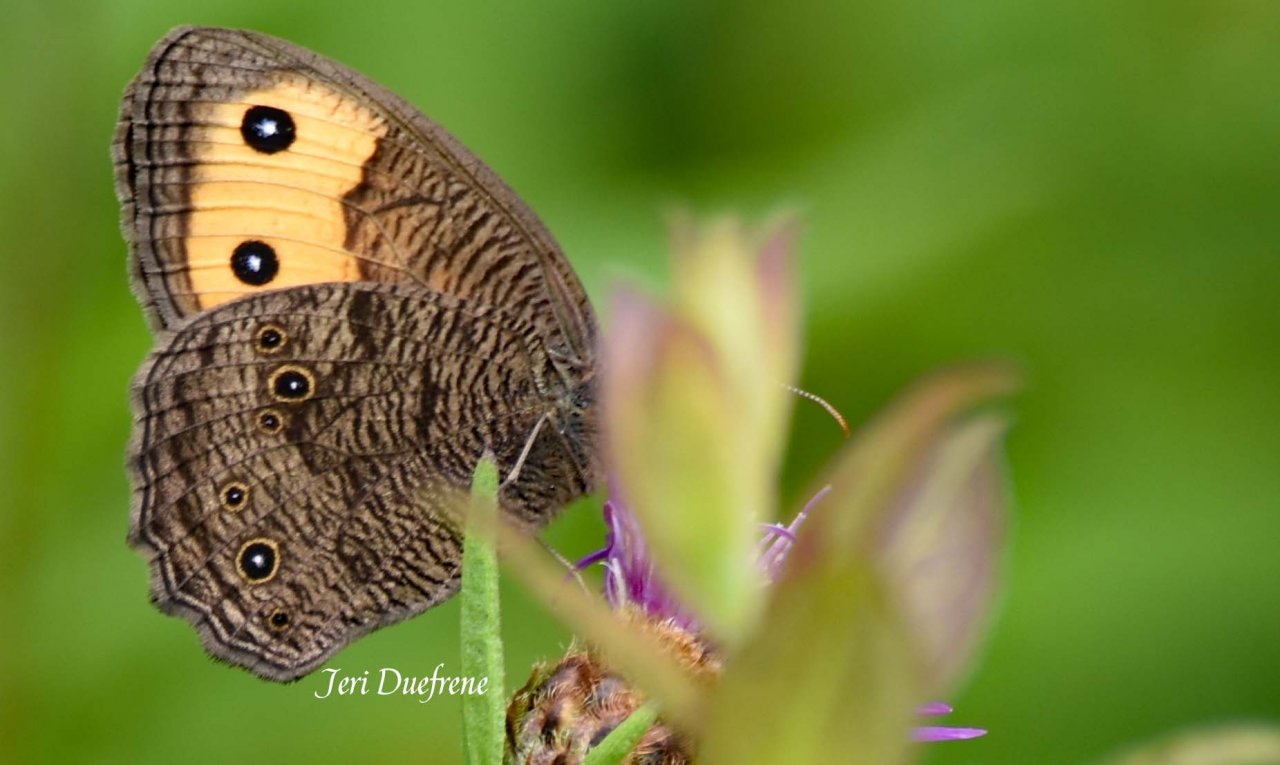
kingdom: Animalia
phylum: Arthropoda
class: Insecta
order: Lepidoptera
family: Nymphalidae
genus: Cercyonis
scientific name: Cercyonis pegala
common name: Common Wood-Nymph
